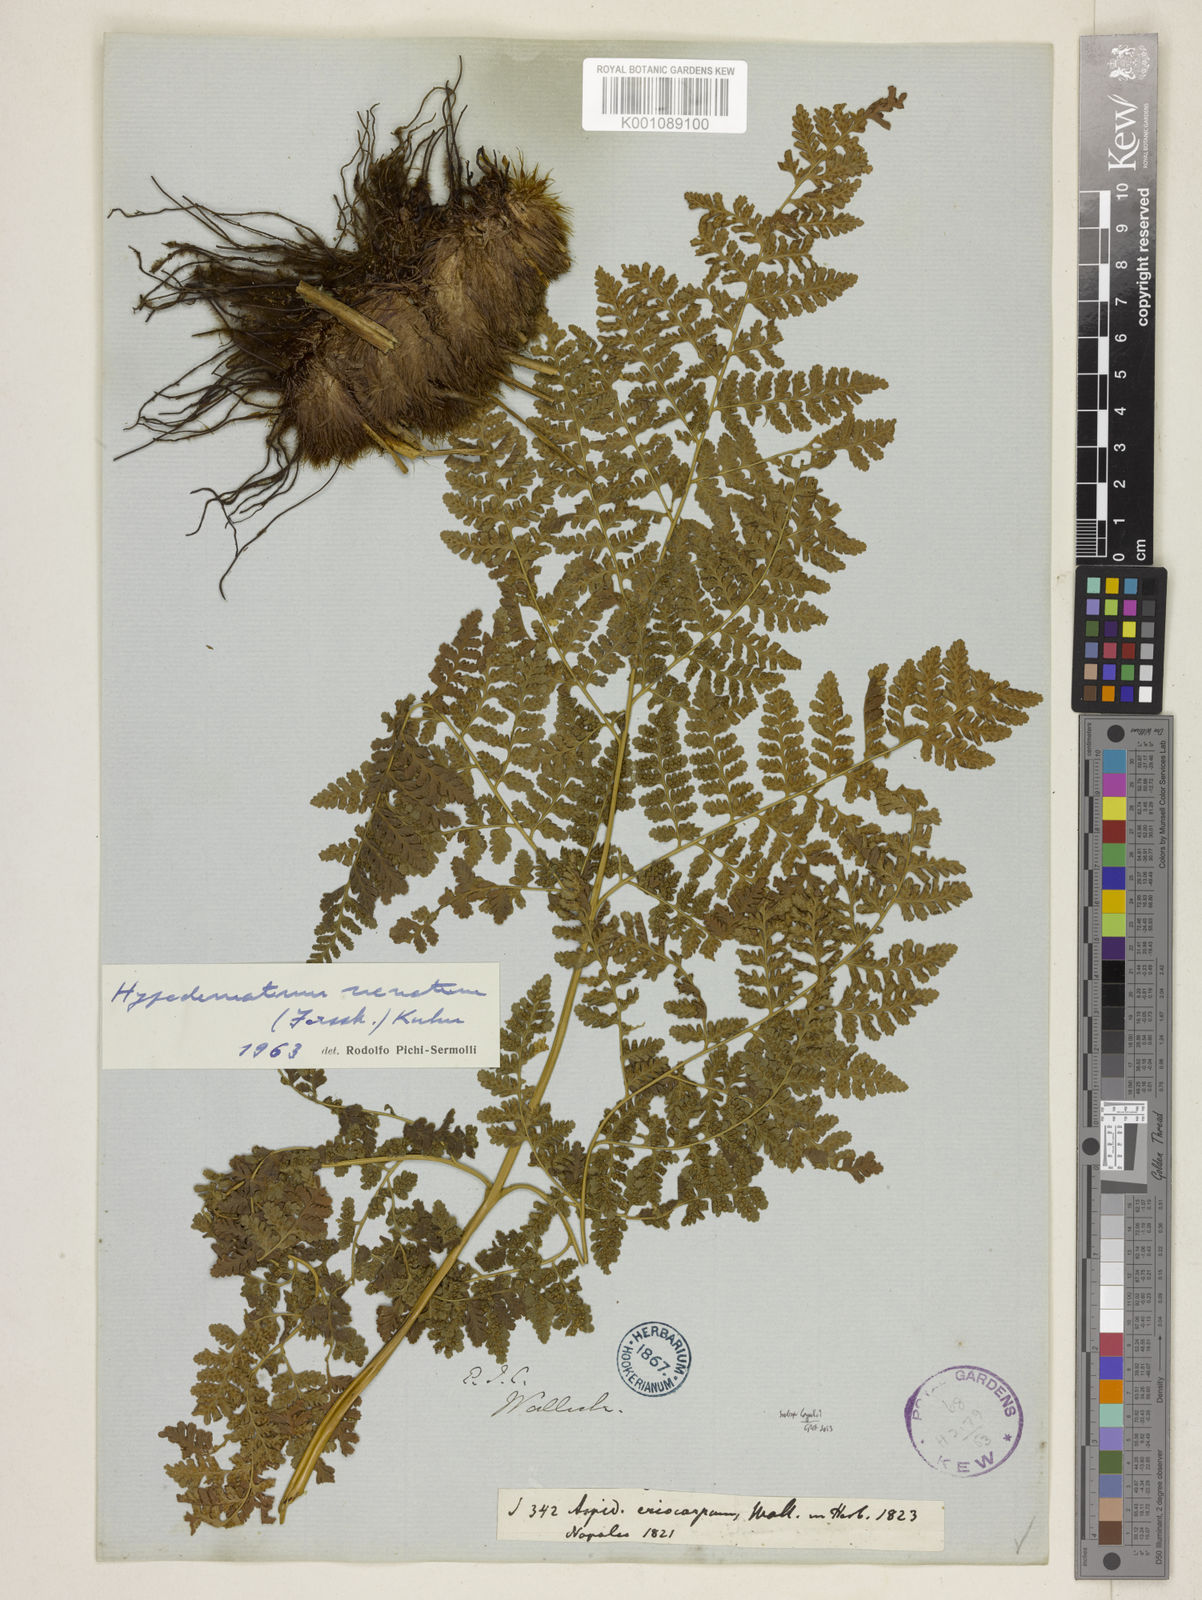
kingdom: Plantae
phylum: Tracheophyta
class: Polypodiopsida
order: Polypodiales
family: Hypodematiaceae
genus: Hypodematium
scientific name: Hypodematium chrysolepis
